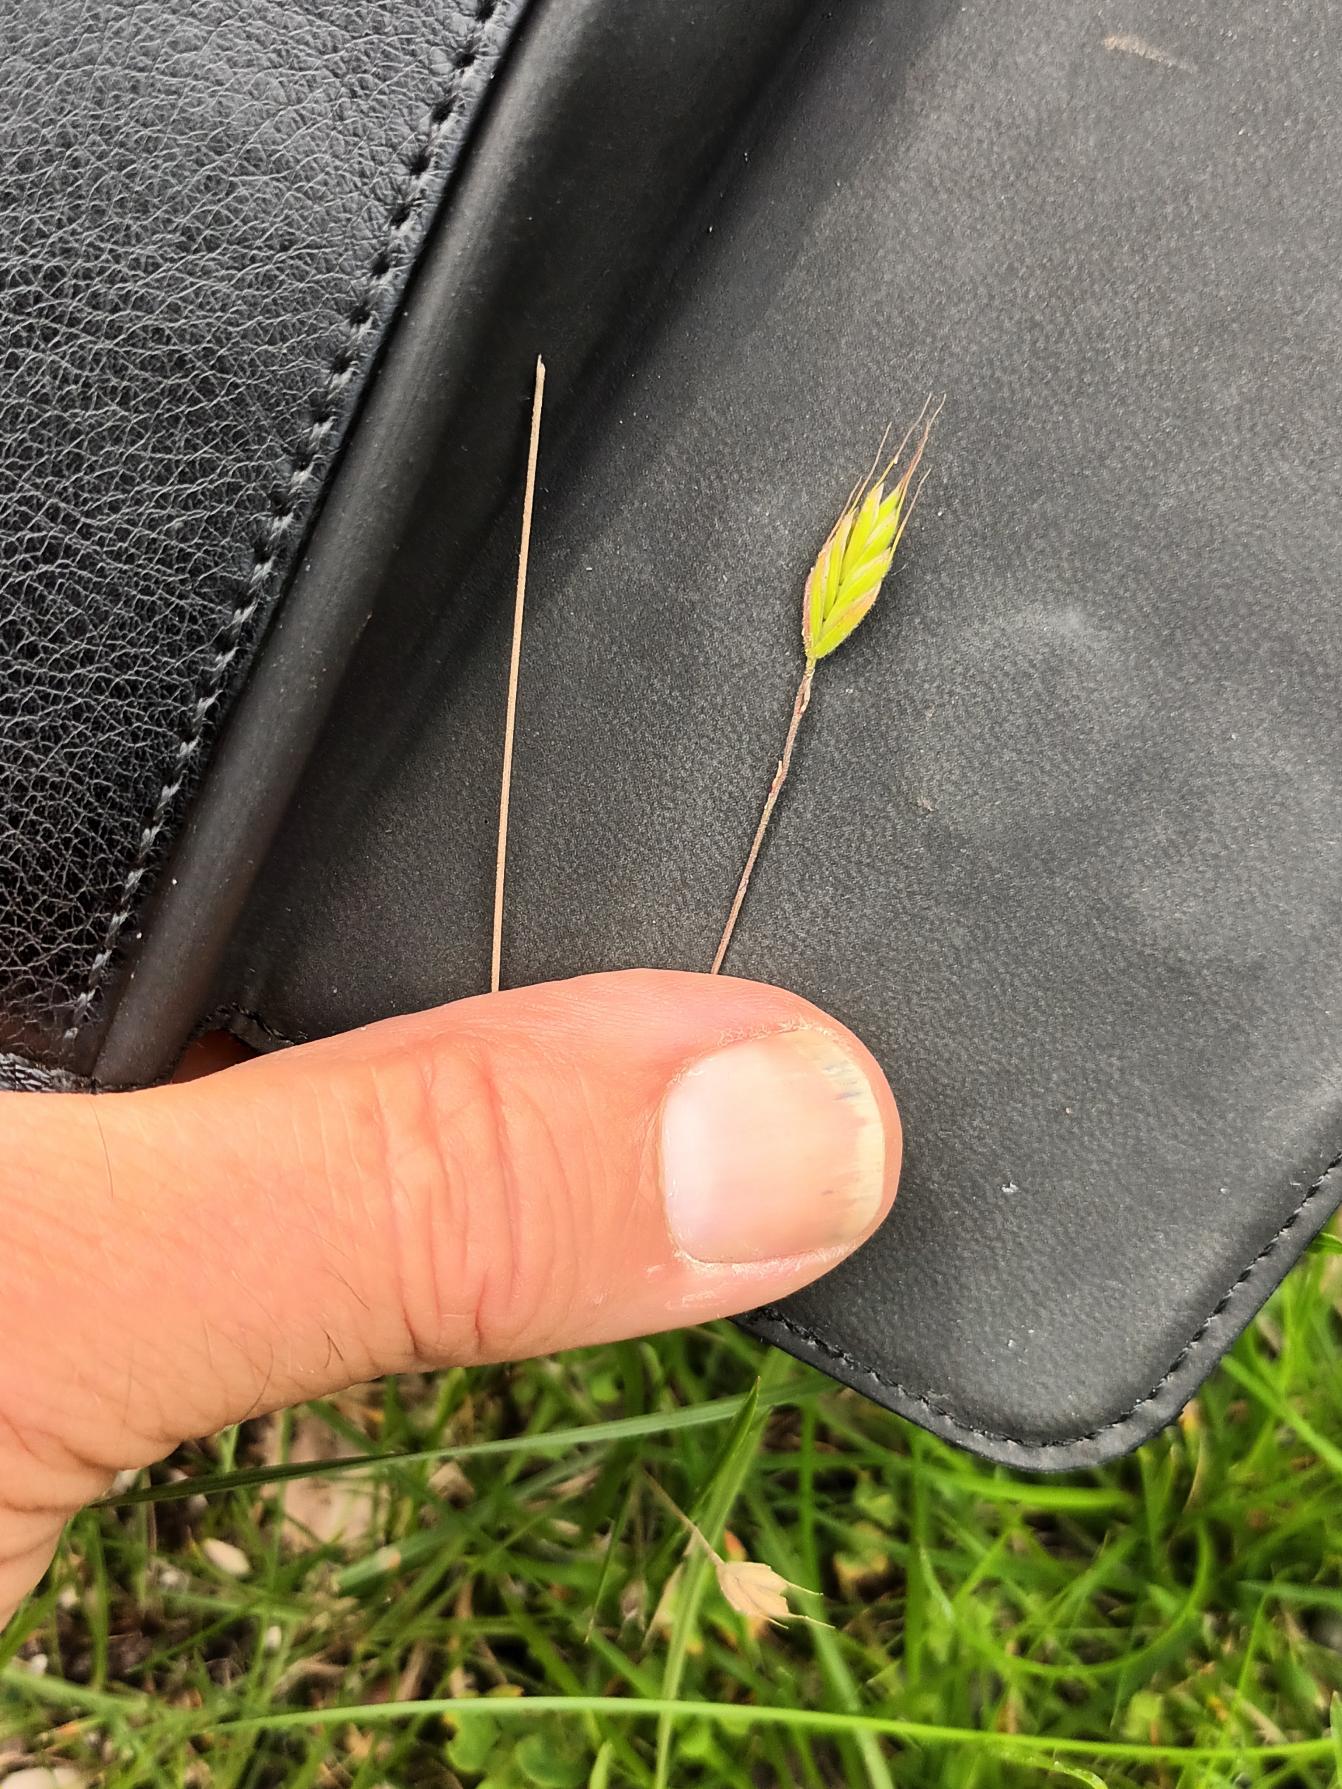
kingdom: Plantae
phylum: Tracheophyta
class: Liliopsida
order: Poales
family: Poaceae
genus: Bromus
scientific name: Bromus hordeaceus
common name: Blød hejre
